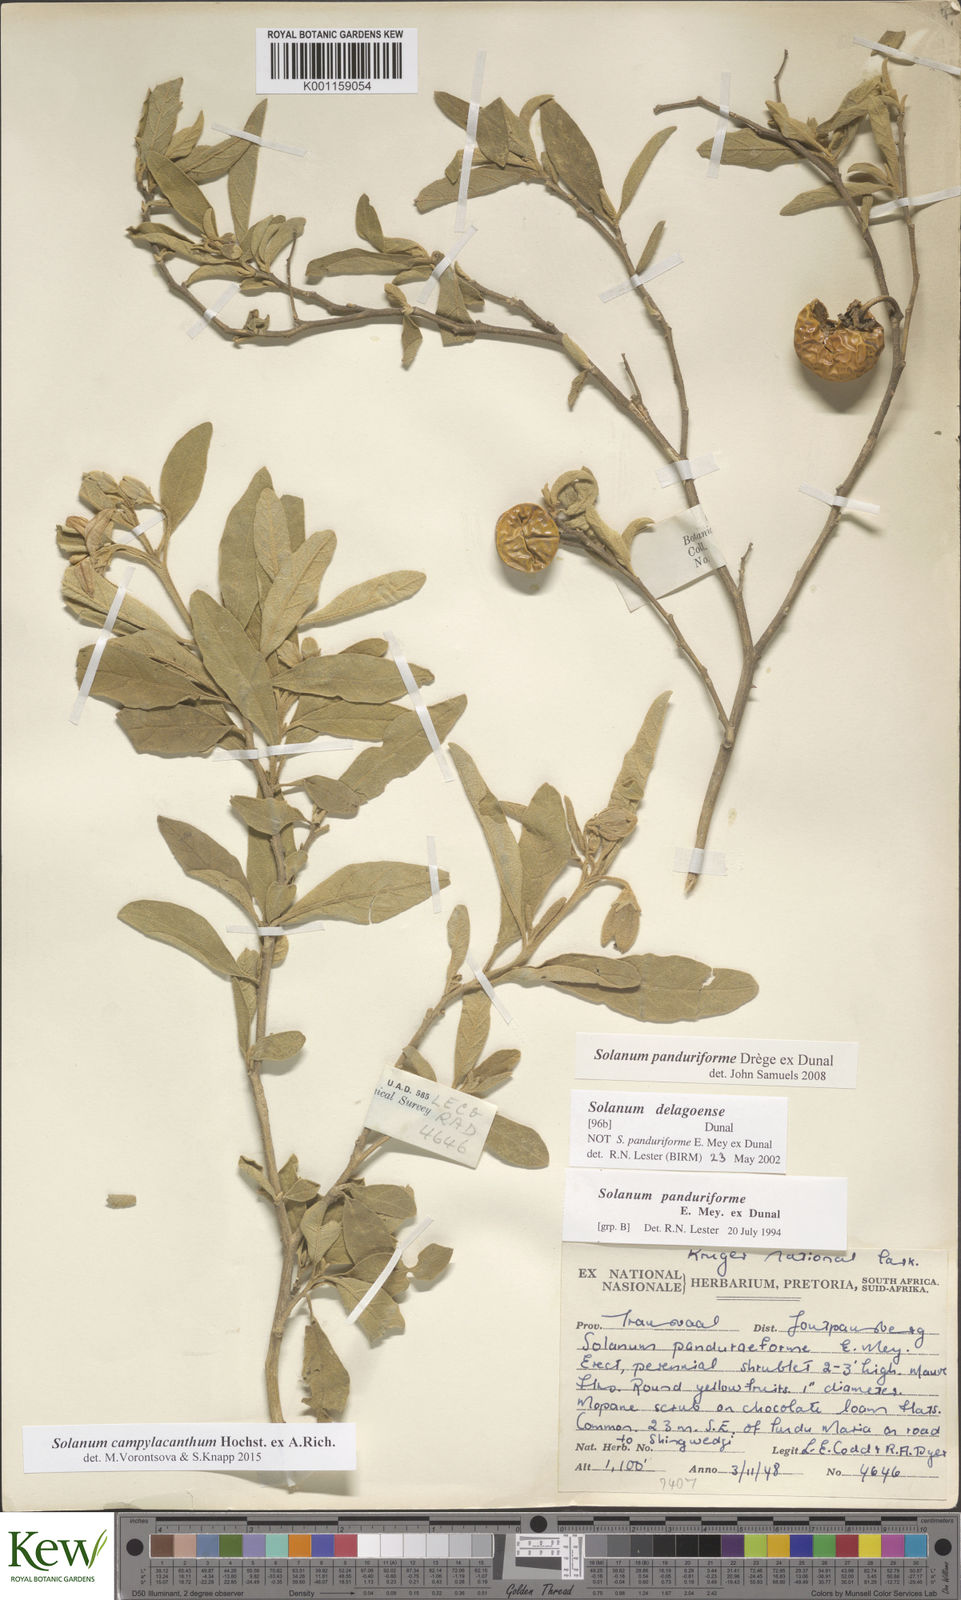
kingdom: Plantae
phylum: Tracheophyta
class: Magnoliopsida
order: Solanales
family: Solanaceae
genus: Solanum
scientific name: Solanum campylacanthum
